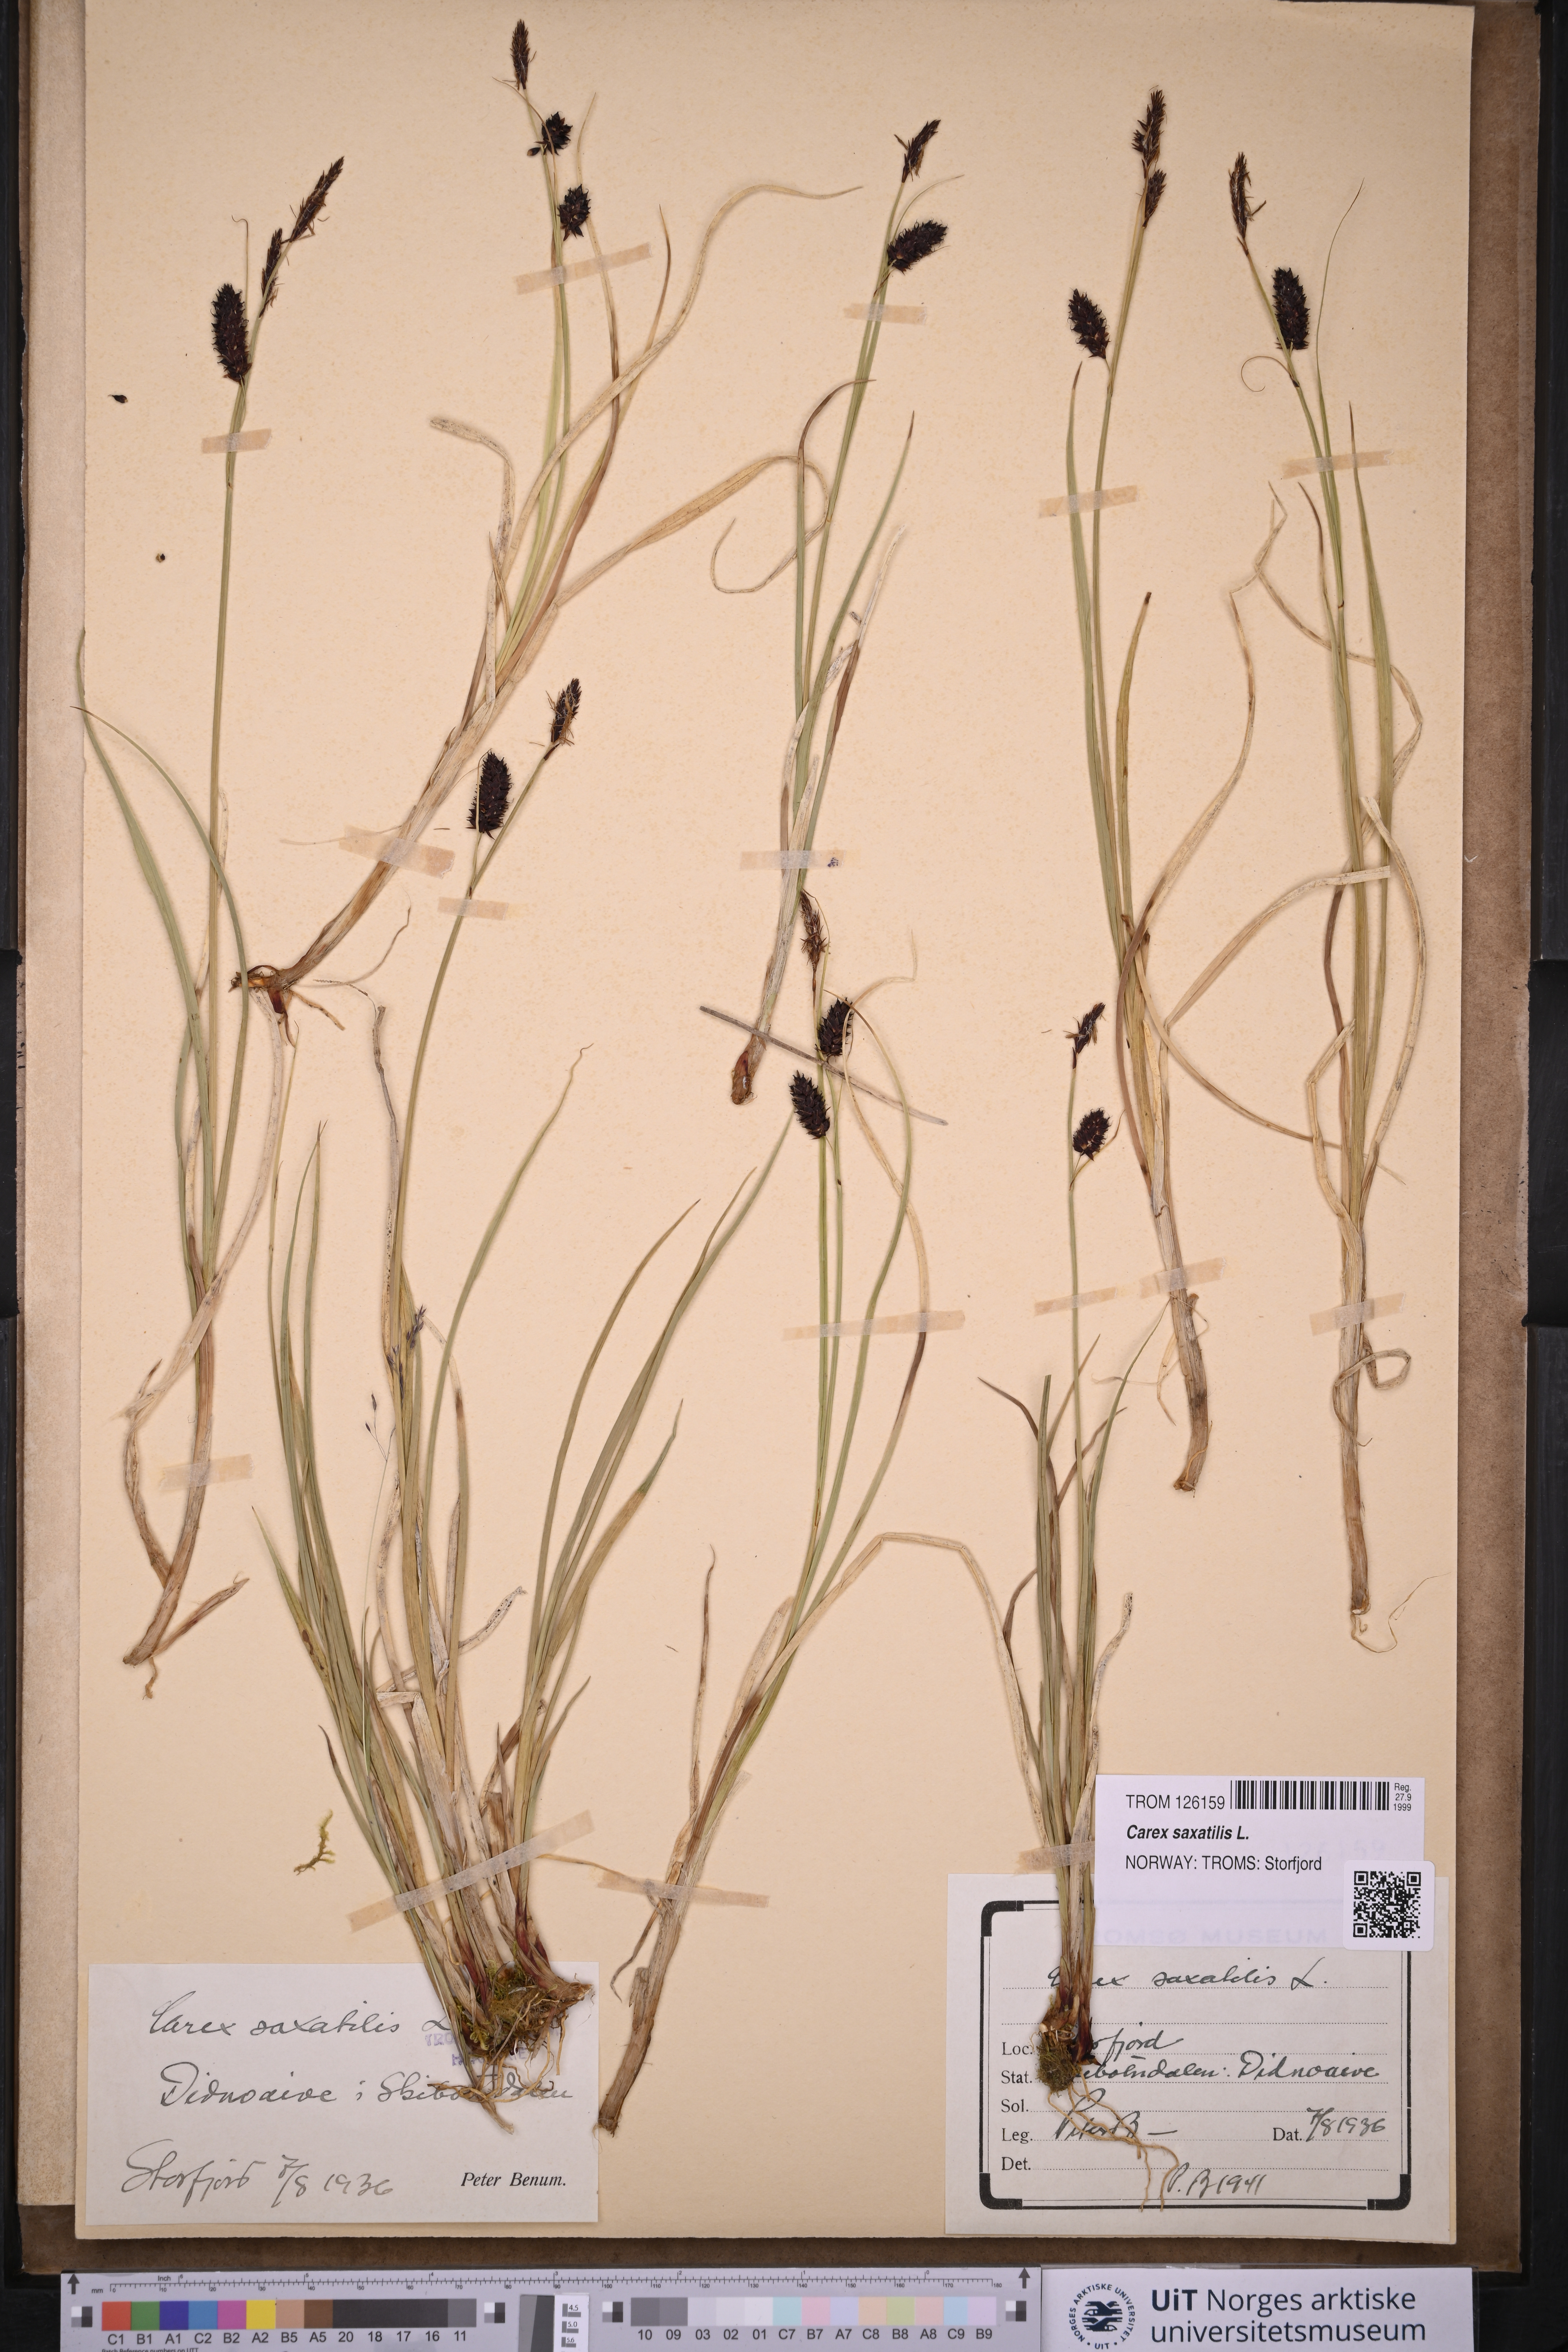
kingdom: Plantae
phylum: Tracheophyta
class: Liliopsida
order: Poales
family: Cyperaceae
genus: Carex
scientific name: Carex saxatilis
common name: Russet sedge
